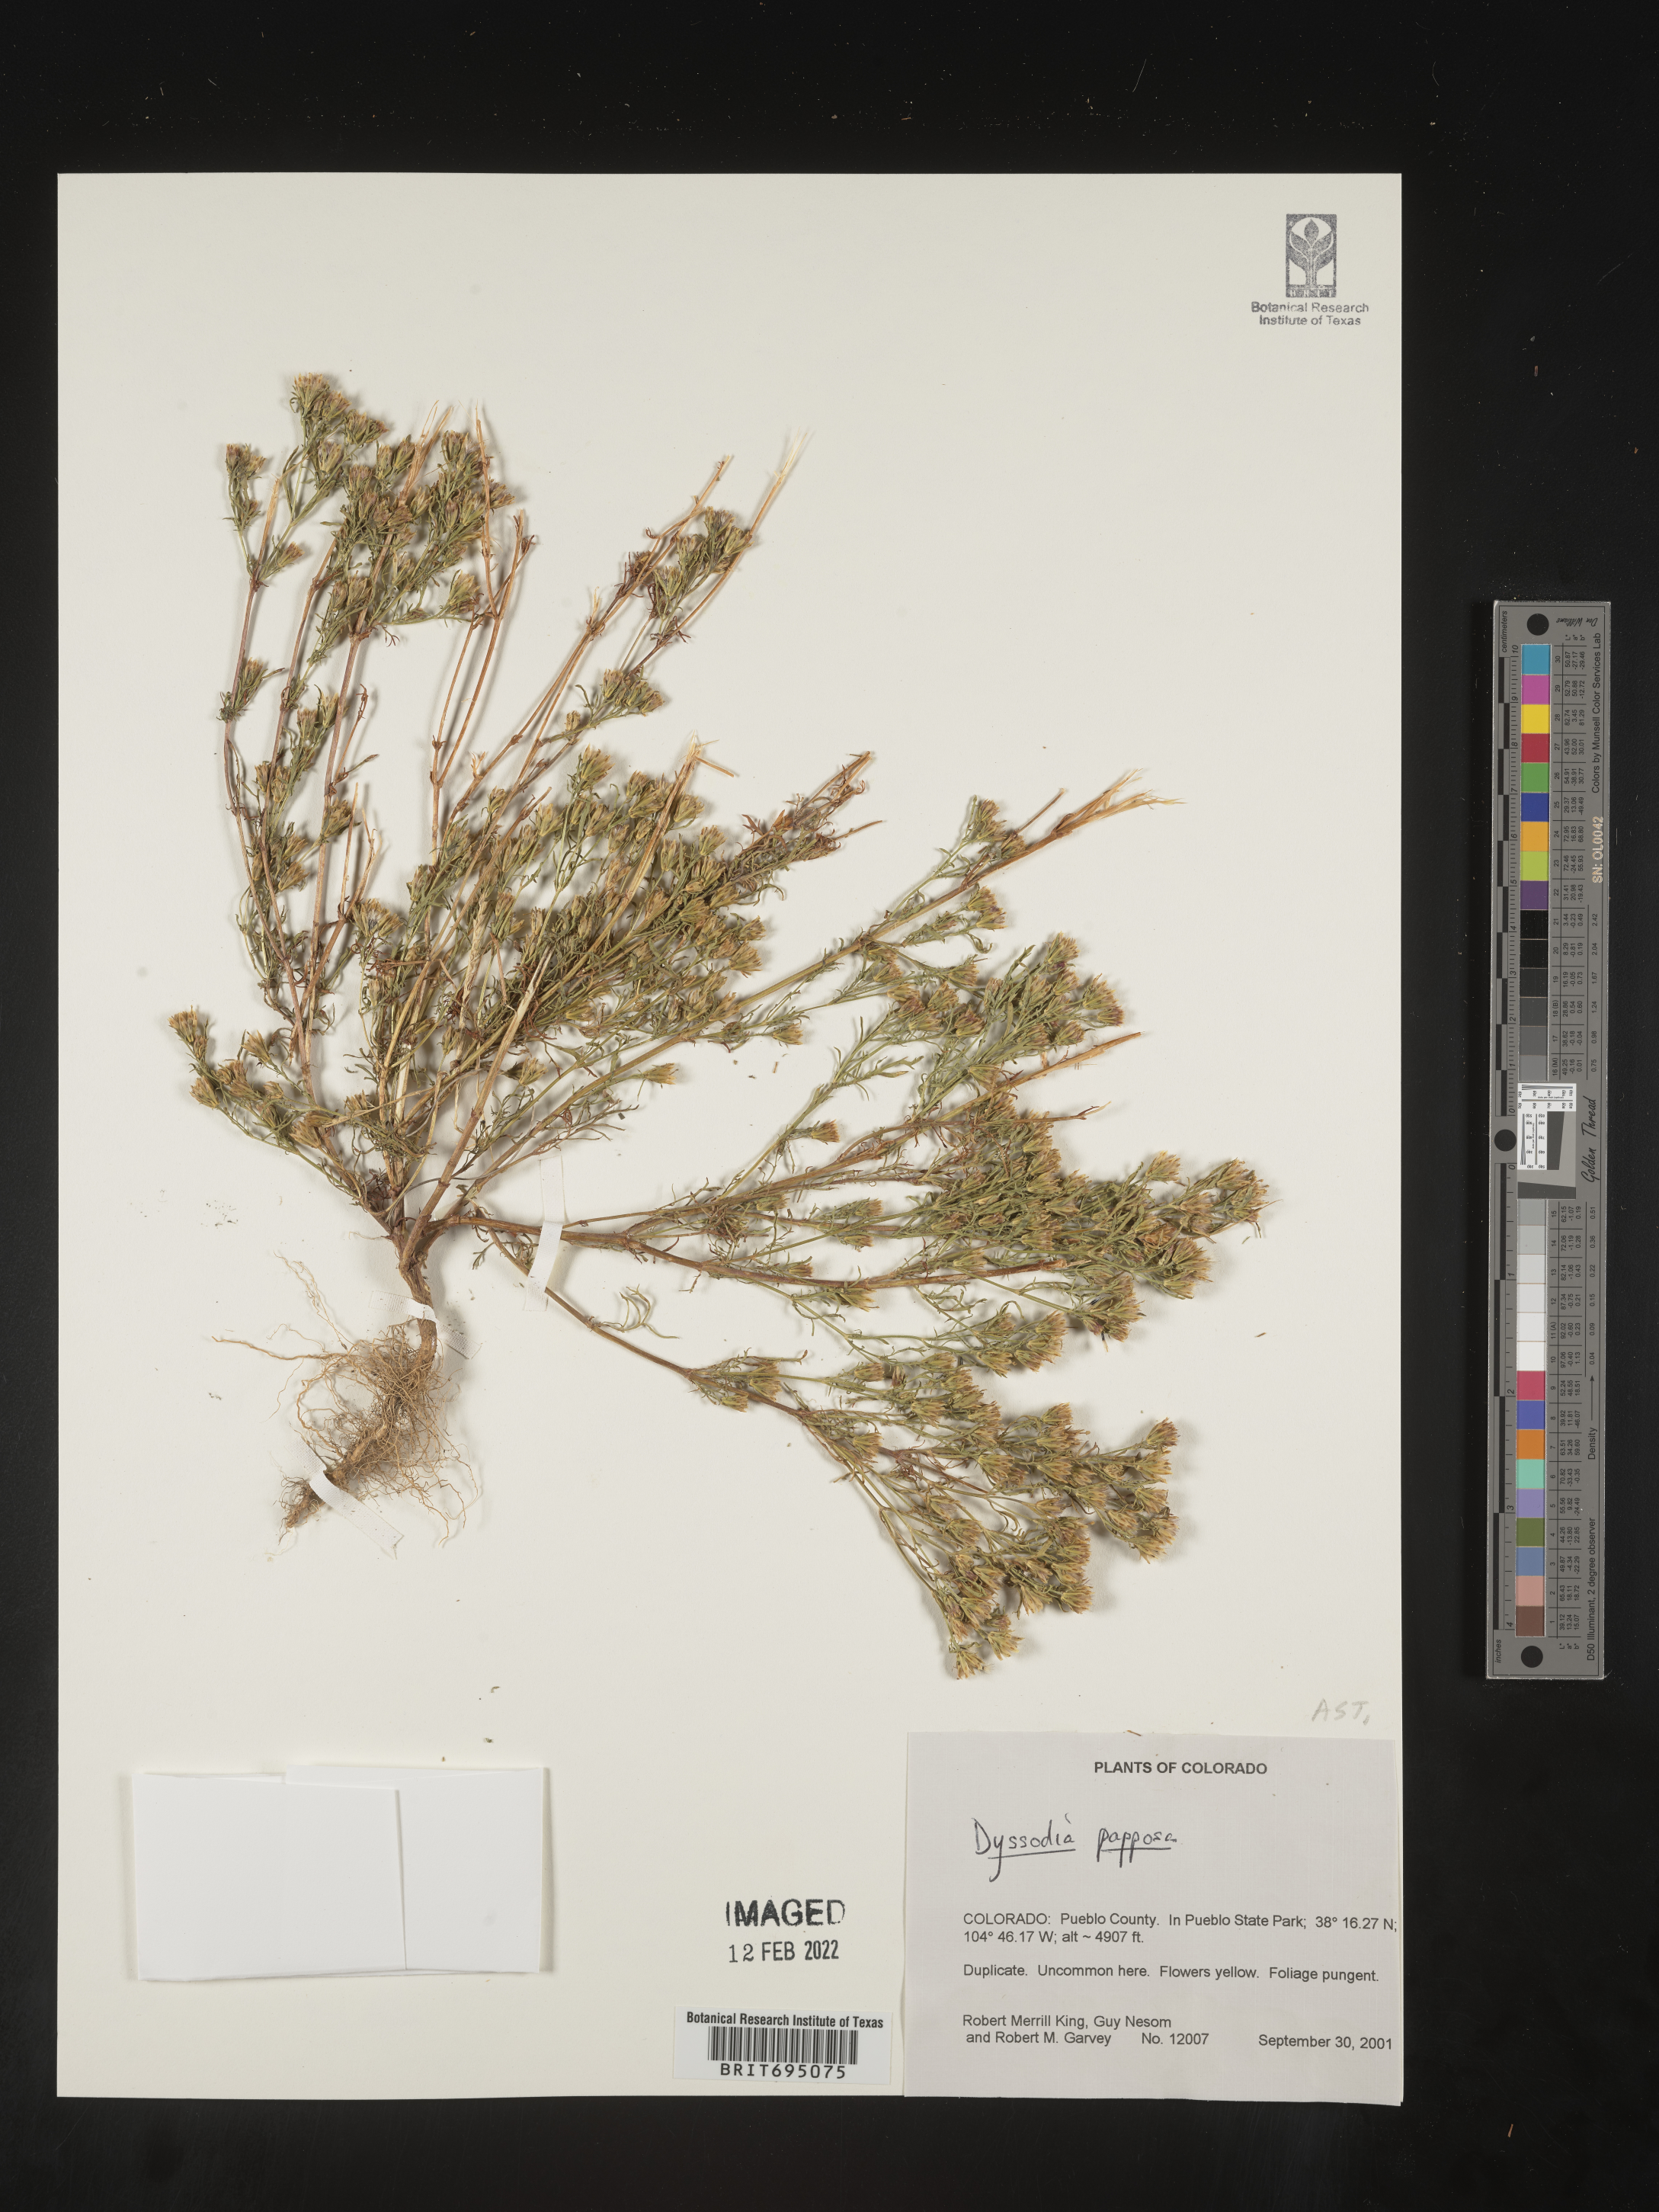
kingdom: Plantae
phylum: Tracheophyta
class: Magnoliopsida
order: Asterales
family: Asteraceae
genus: Dyssodia
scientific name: Dyssodia papposa
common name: Dogweed
